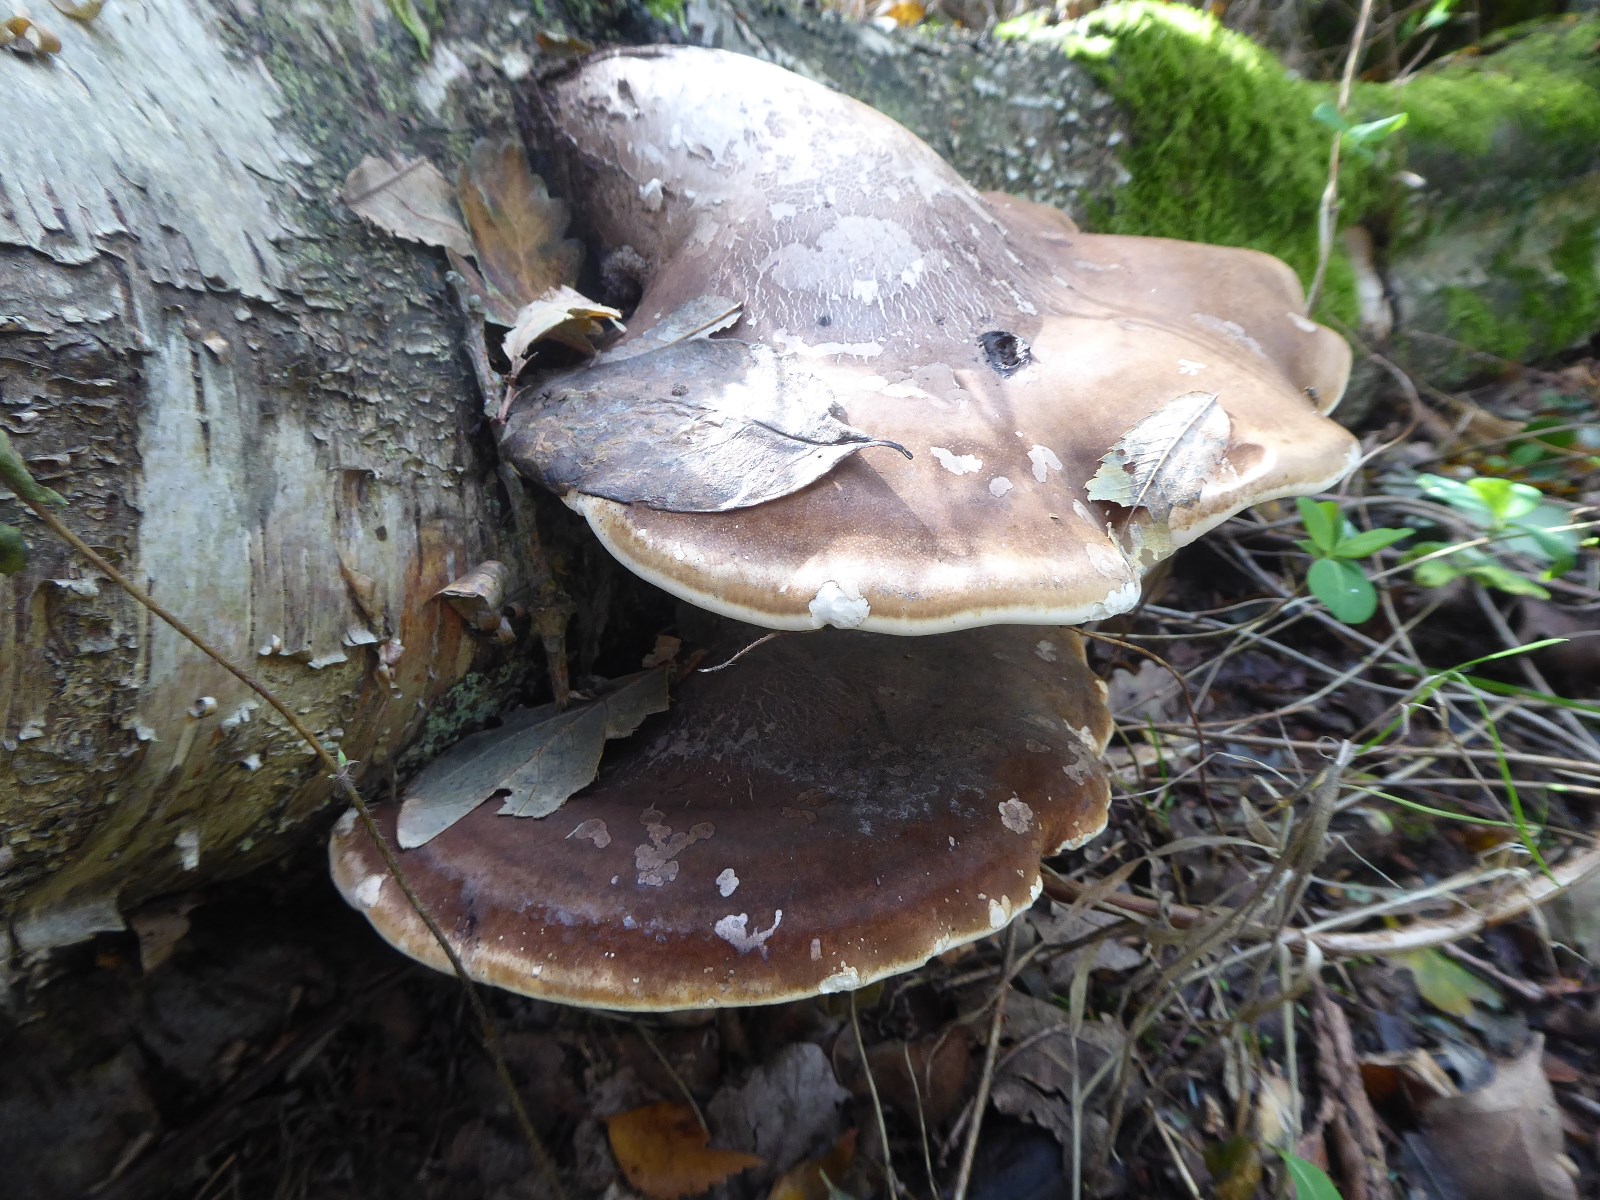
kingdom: Fungi
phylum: Basidiomycota
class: Agaricomycetes
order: Polyporales
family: Fomitopsidaceae
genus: Fomitopsis
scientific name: Fomitopsis betulina
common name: birkeporesvamp
